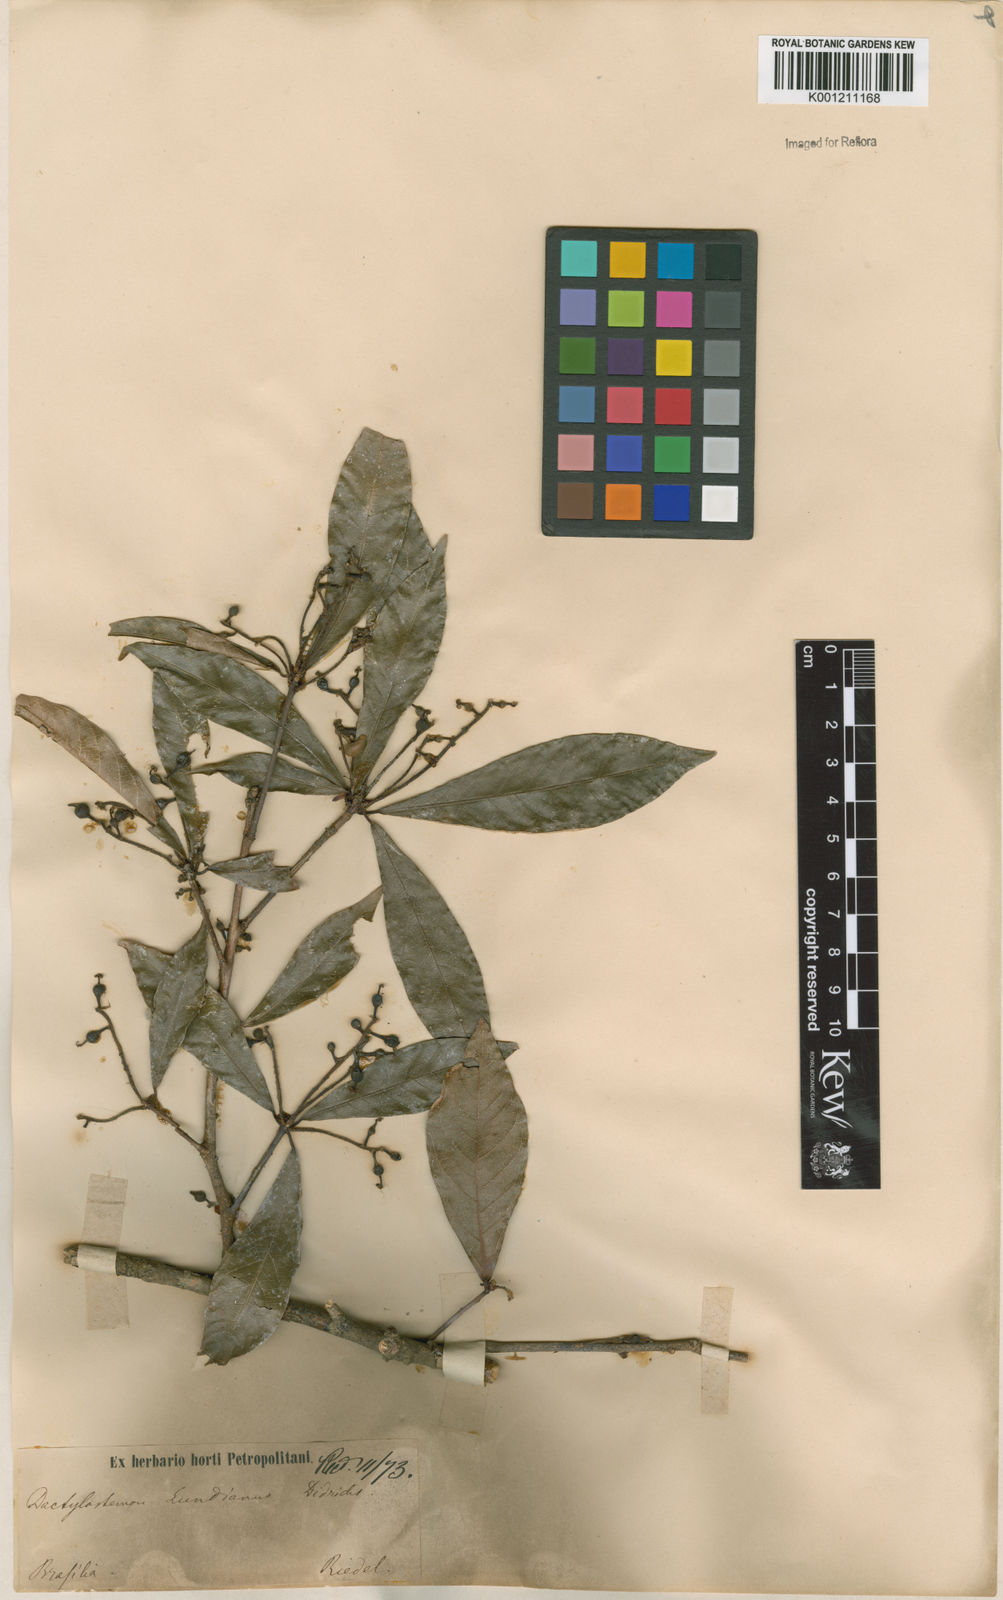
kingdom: Plantae
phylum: Tracheophyta
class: Magnoliopsida
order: Malpighiales
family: Euphorbiaceae
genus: Actinostemon
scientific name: Actinostemon klotzschii
